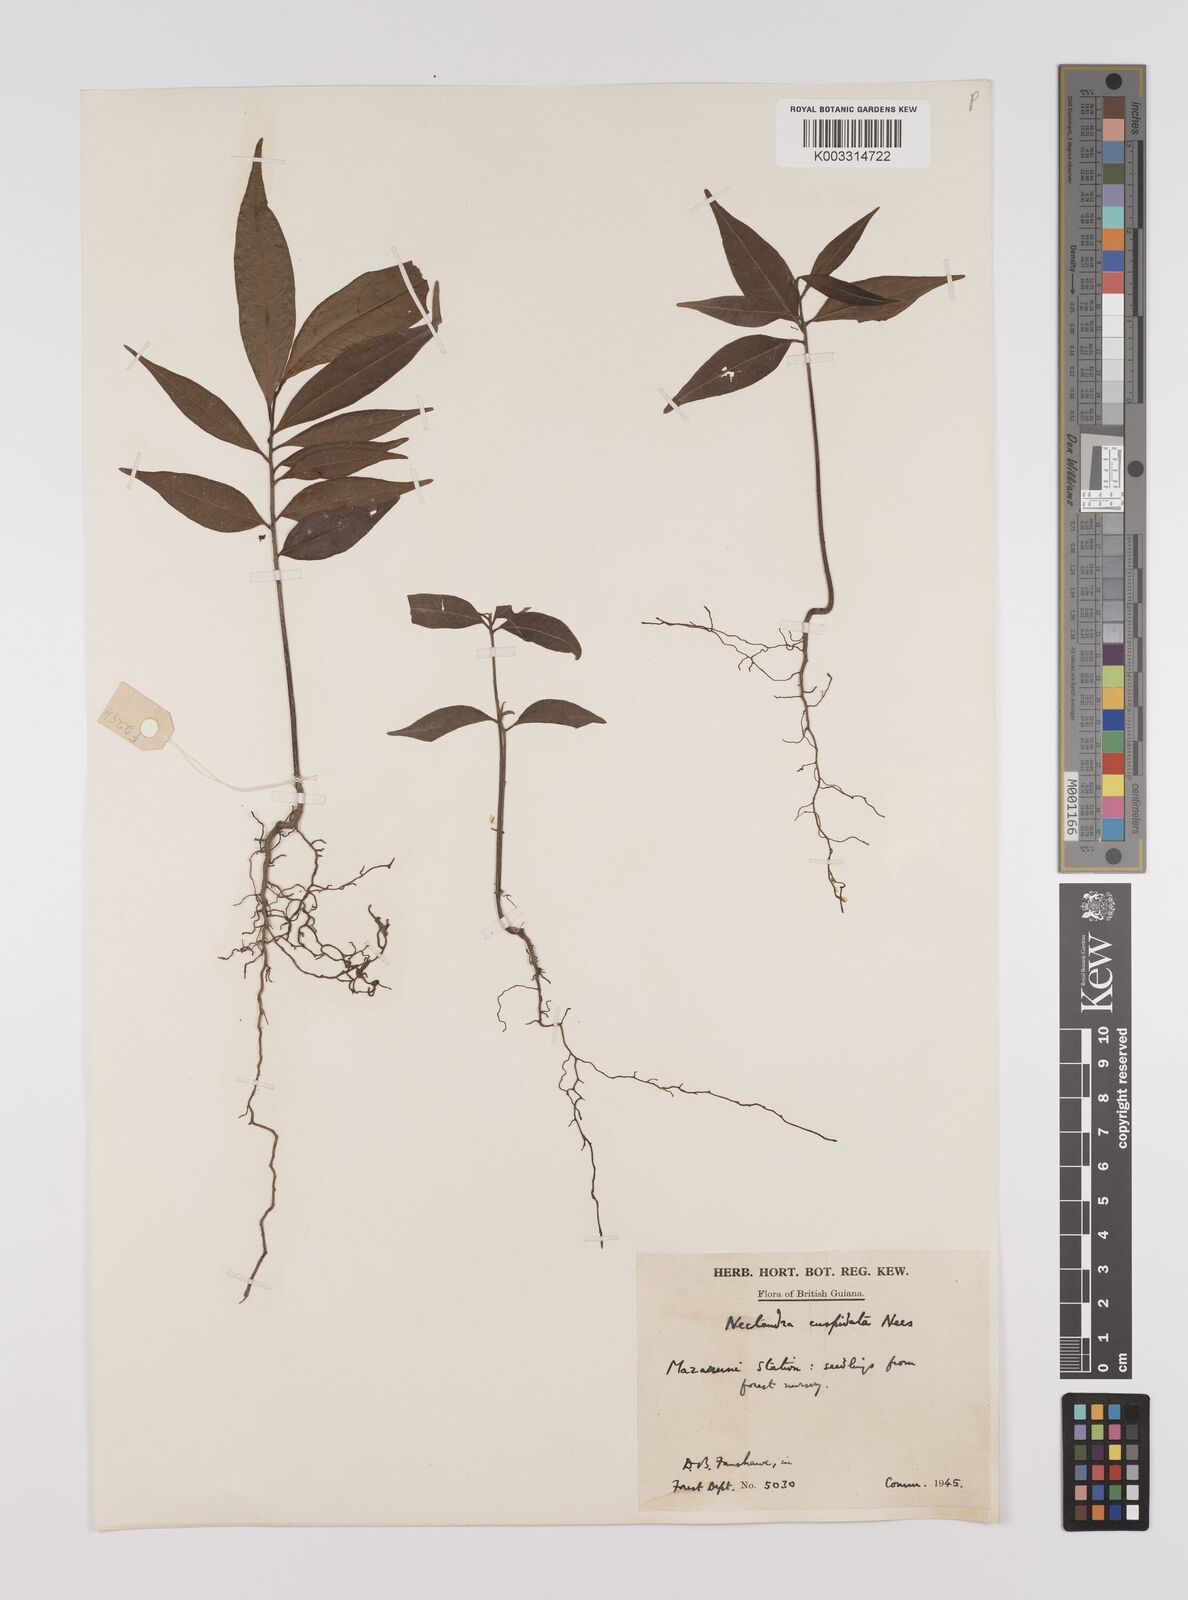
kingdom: Plantae
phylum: Tracheophyta
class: Magnoliopsida
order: Laurales
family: Lauraceae
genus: Nectandra
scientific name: Nectandra cuspidata
